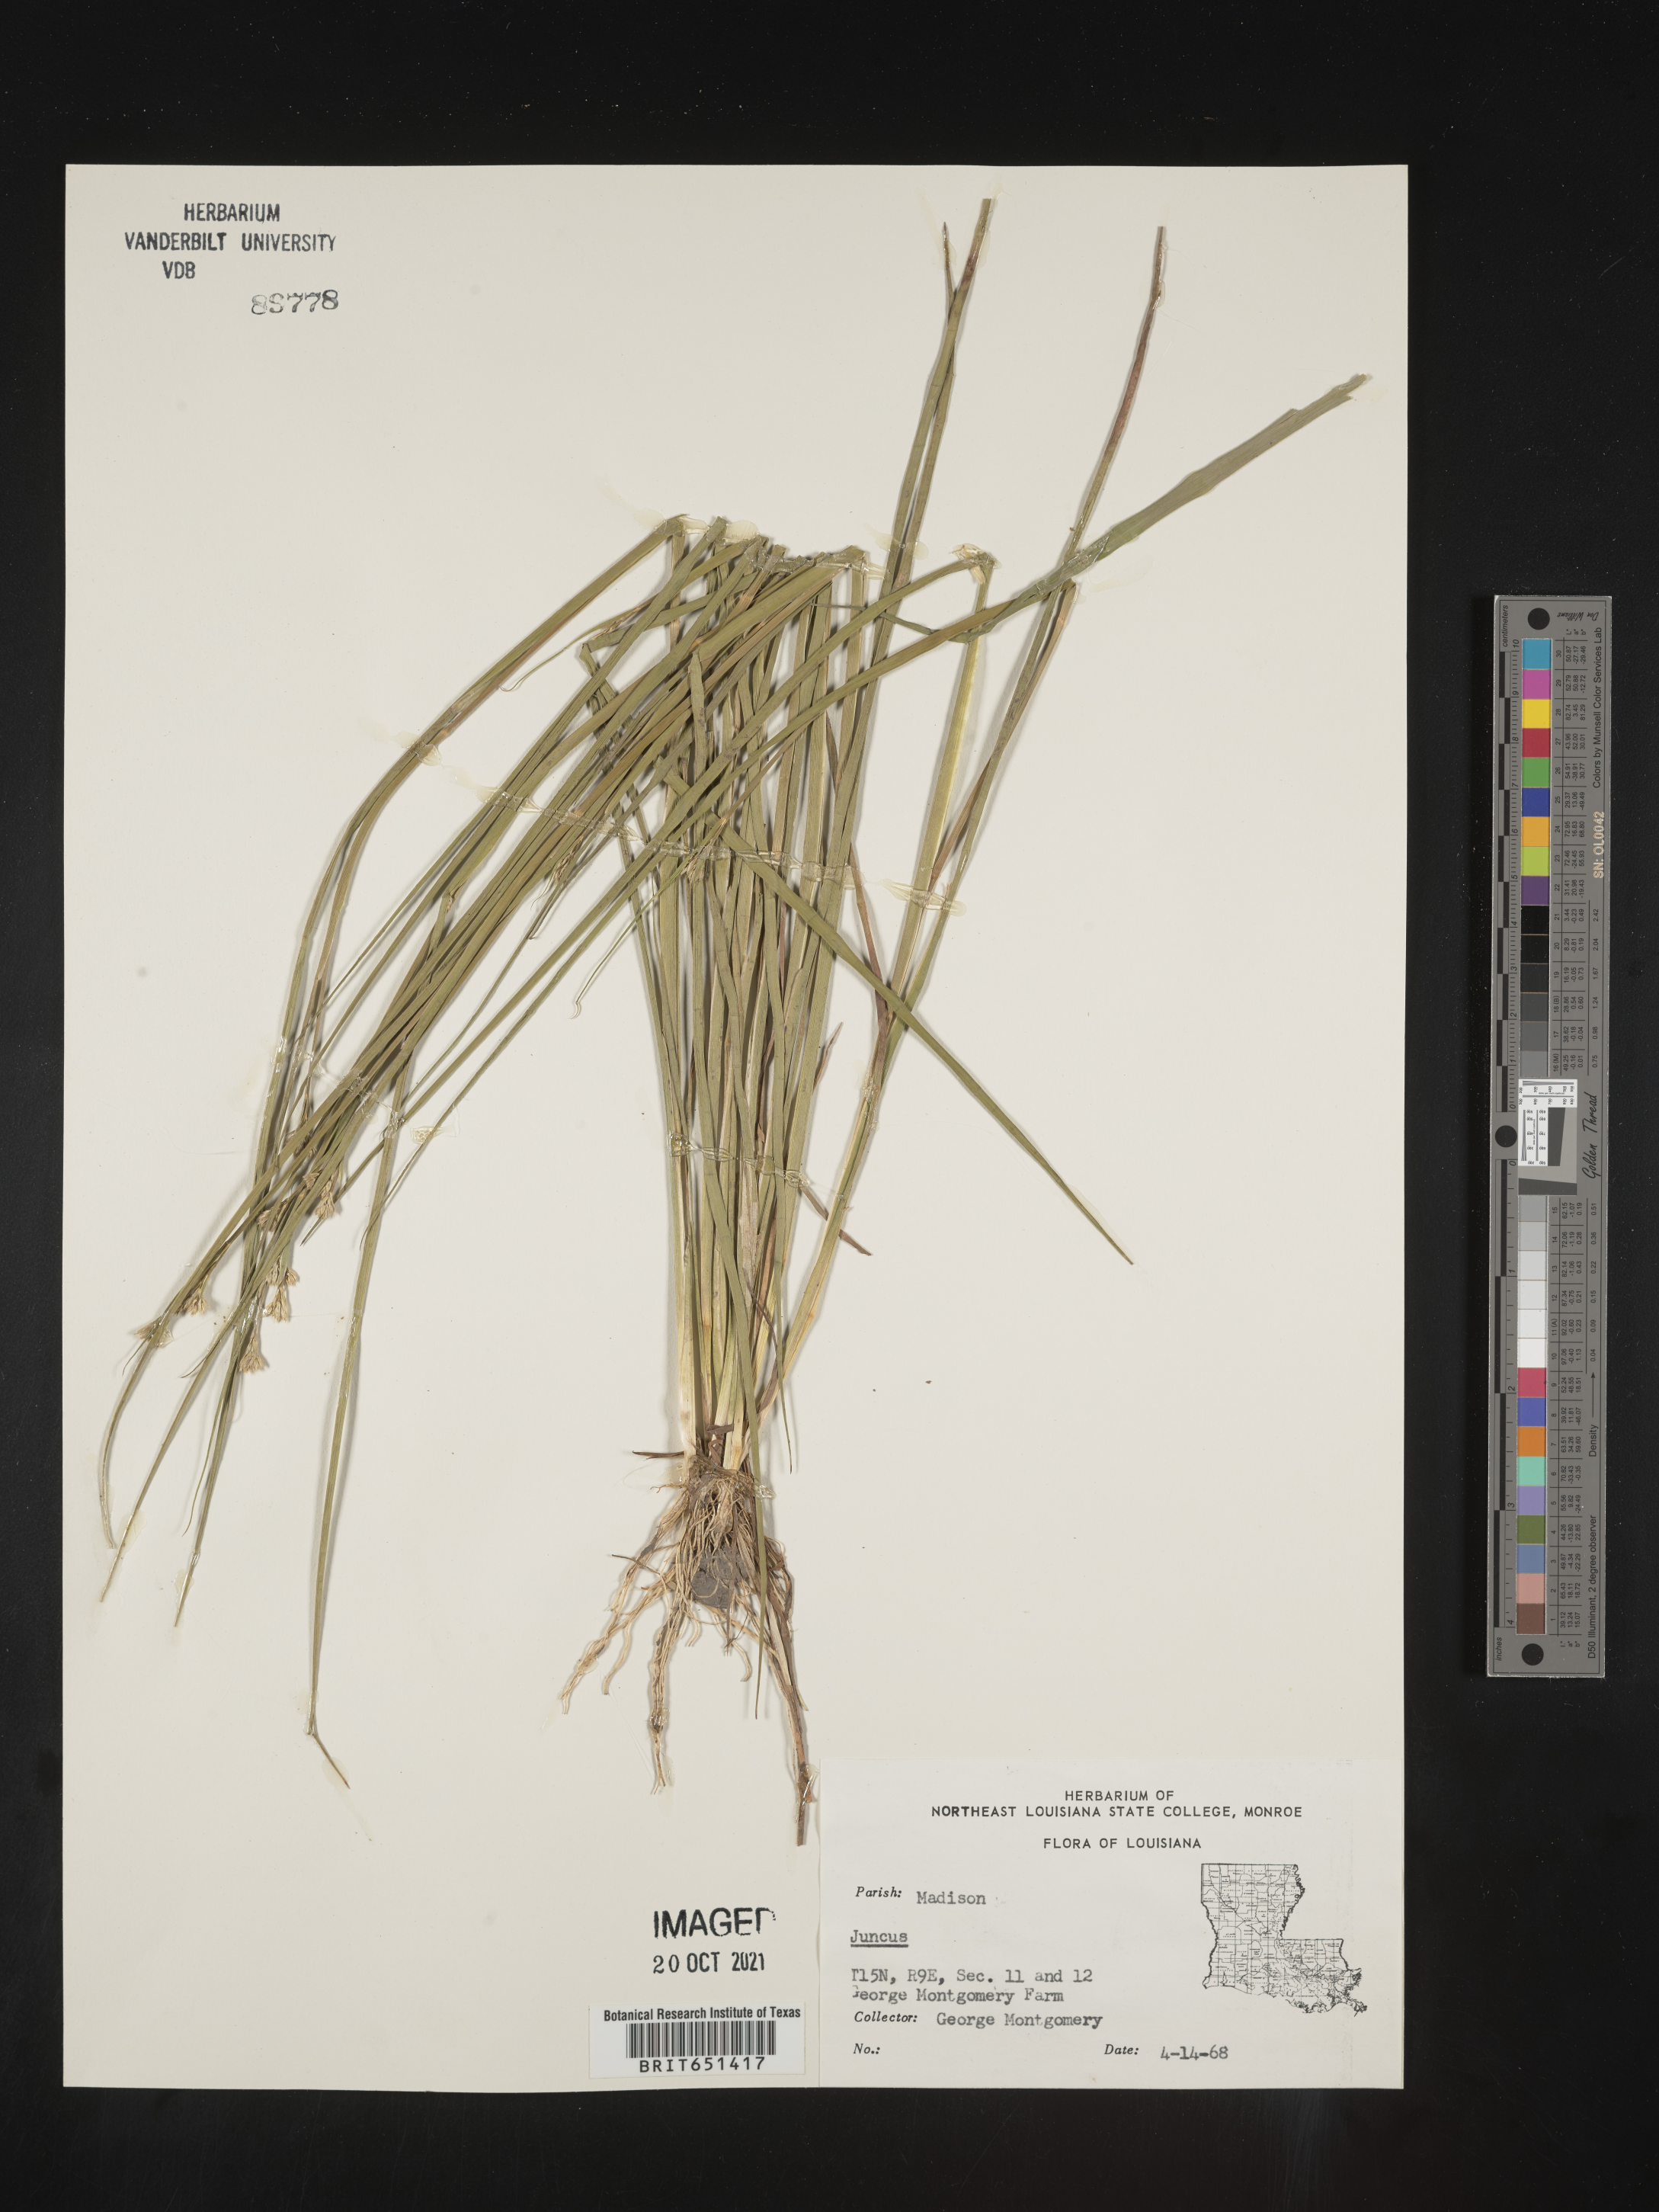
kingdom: Plantae
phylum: Tracheophyta
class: Liliopsida
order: Poales
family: Juncaceae
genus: Juncus
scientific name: Juncus
